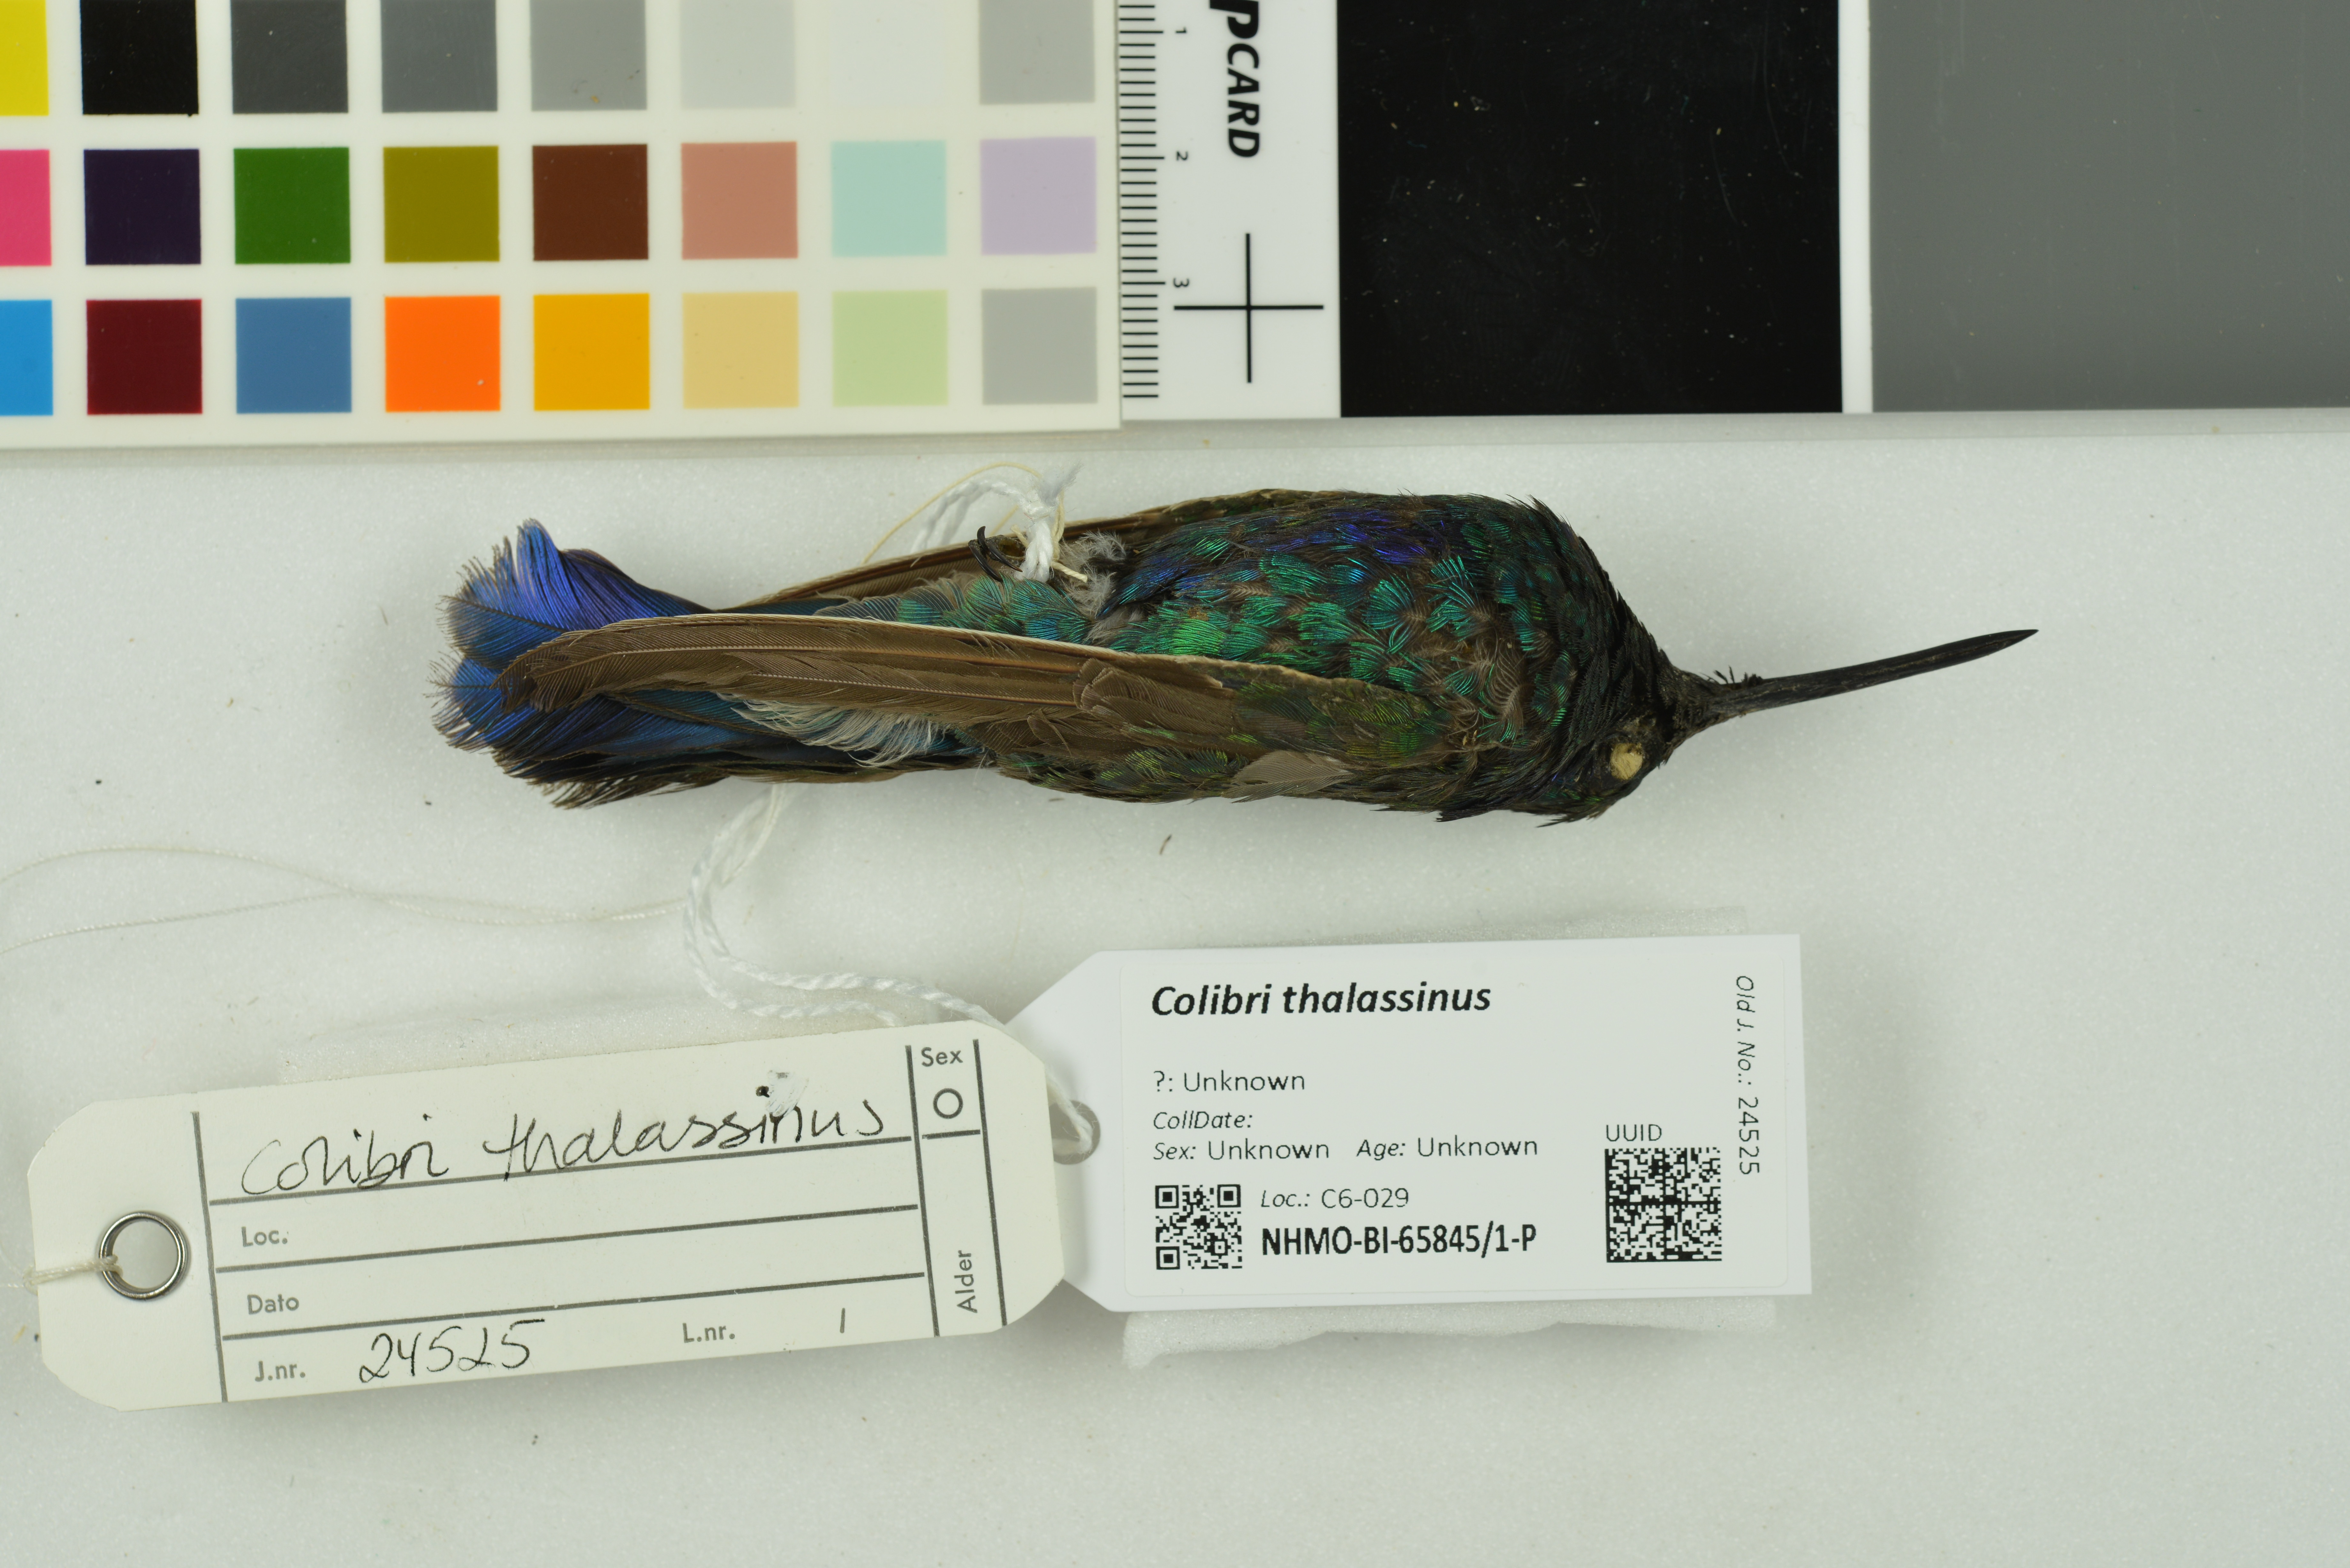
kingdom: Animalia
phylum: Chordata
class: Aves
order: Apodiformes
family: Trochilidae
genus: Colibri
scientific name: Colibri thalassinus
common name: Green violetear
